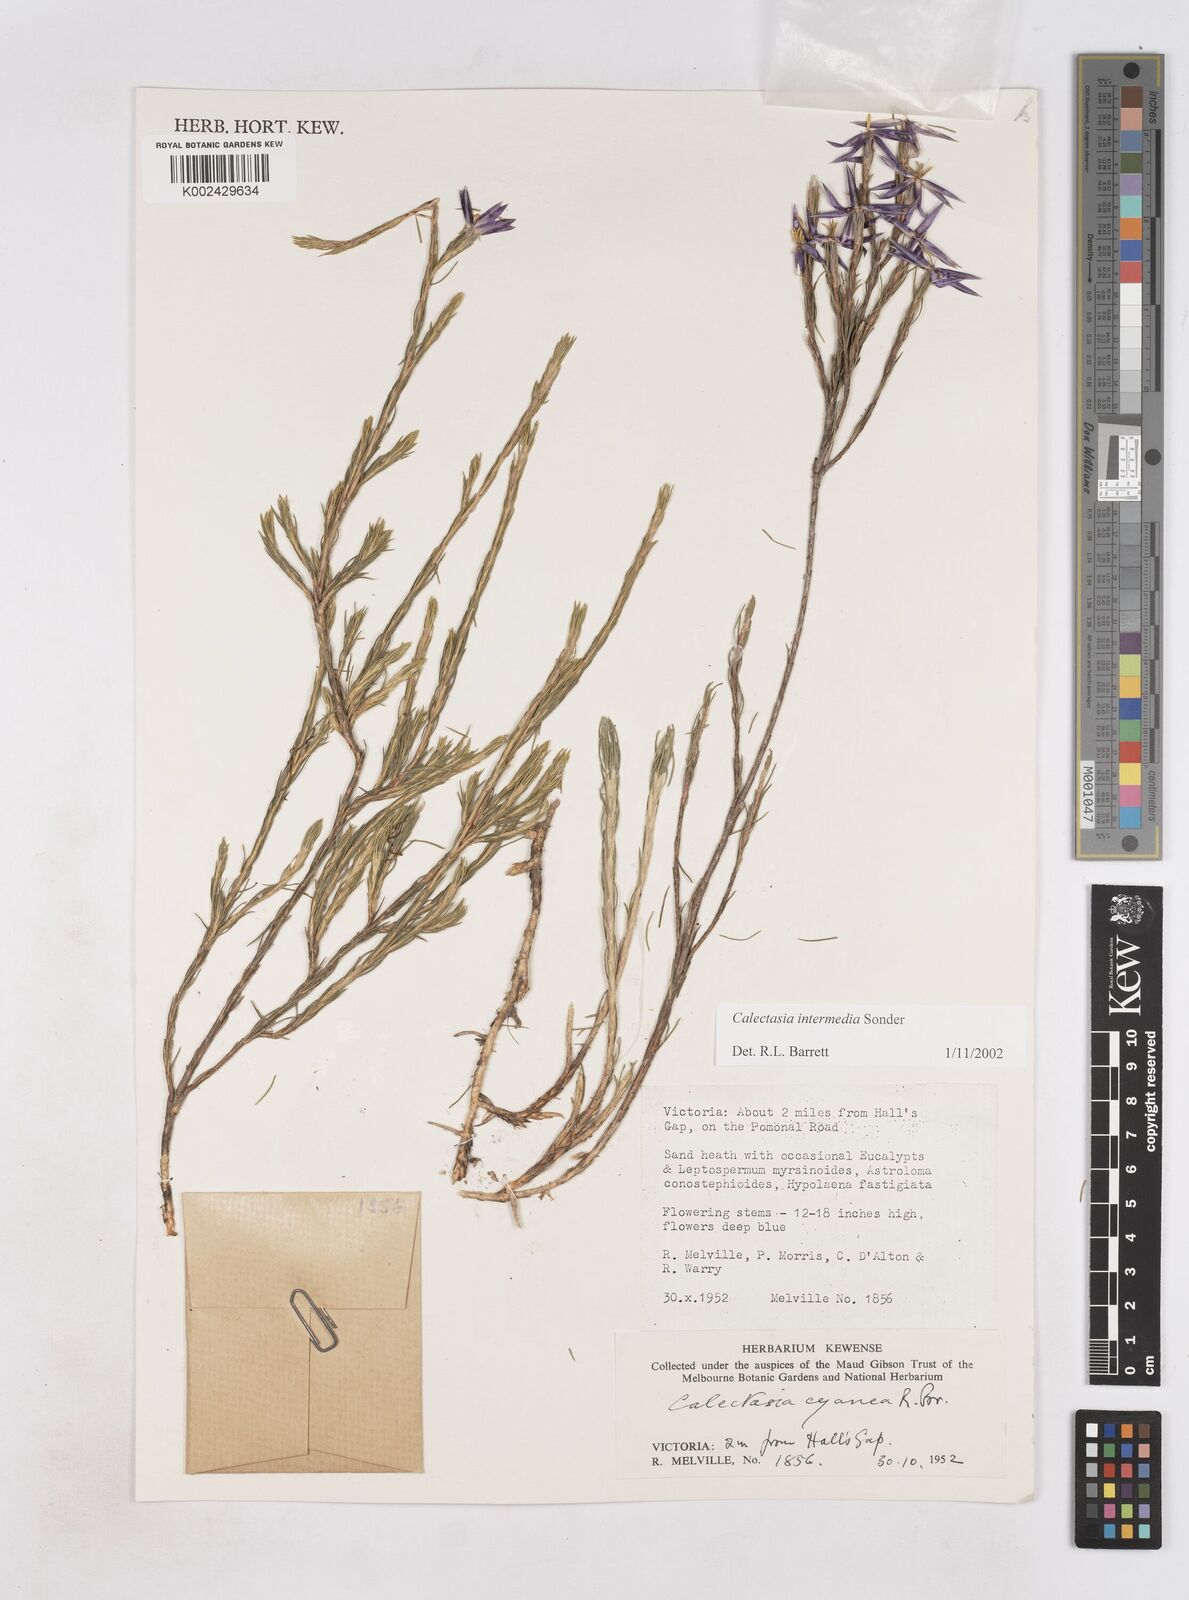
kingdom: Plantae
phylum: Tracheophyta
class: Liliopsida
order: Arecales
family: Dasypogonaceae
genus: Calectasia
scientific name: Calectasia intermedia
